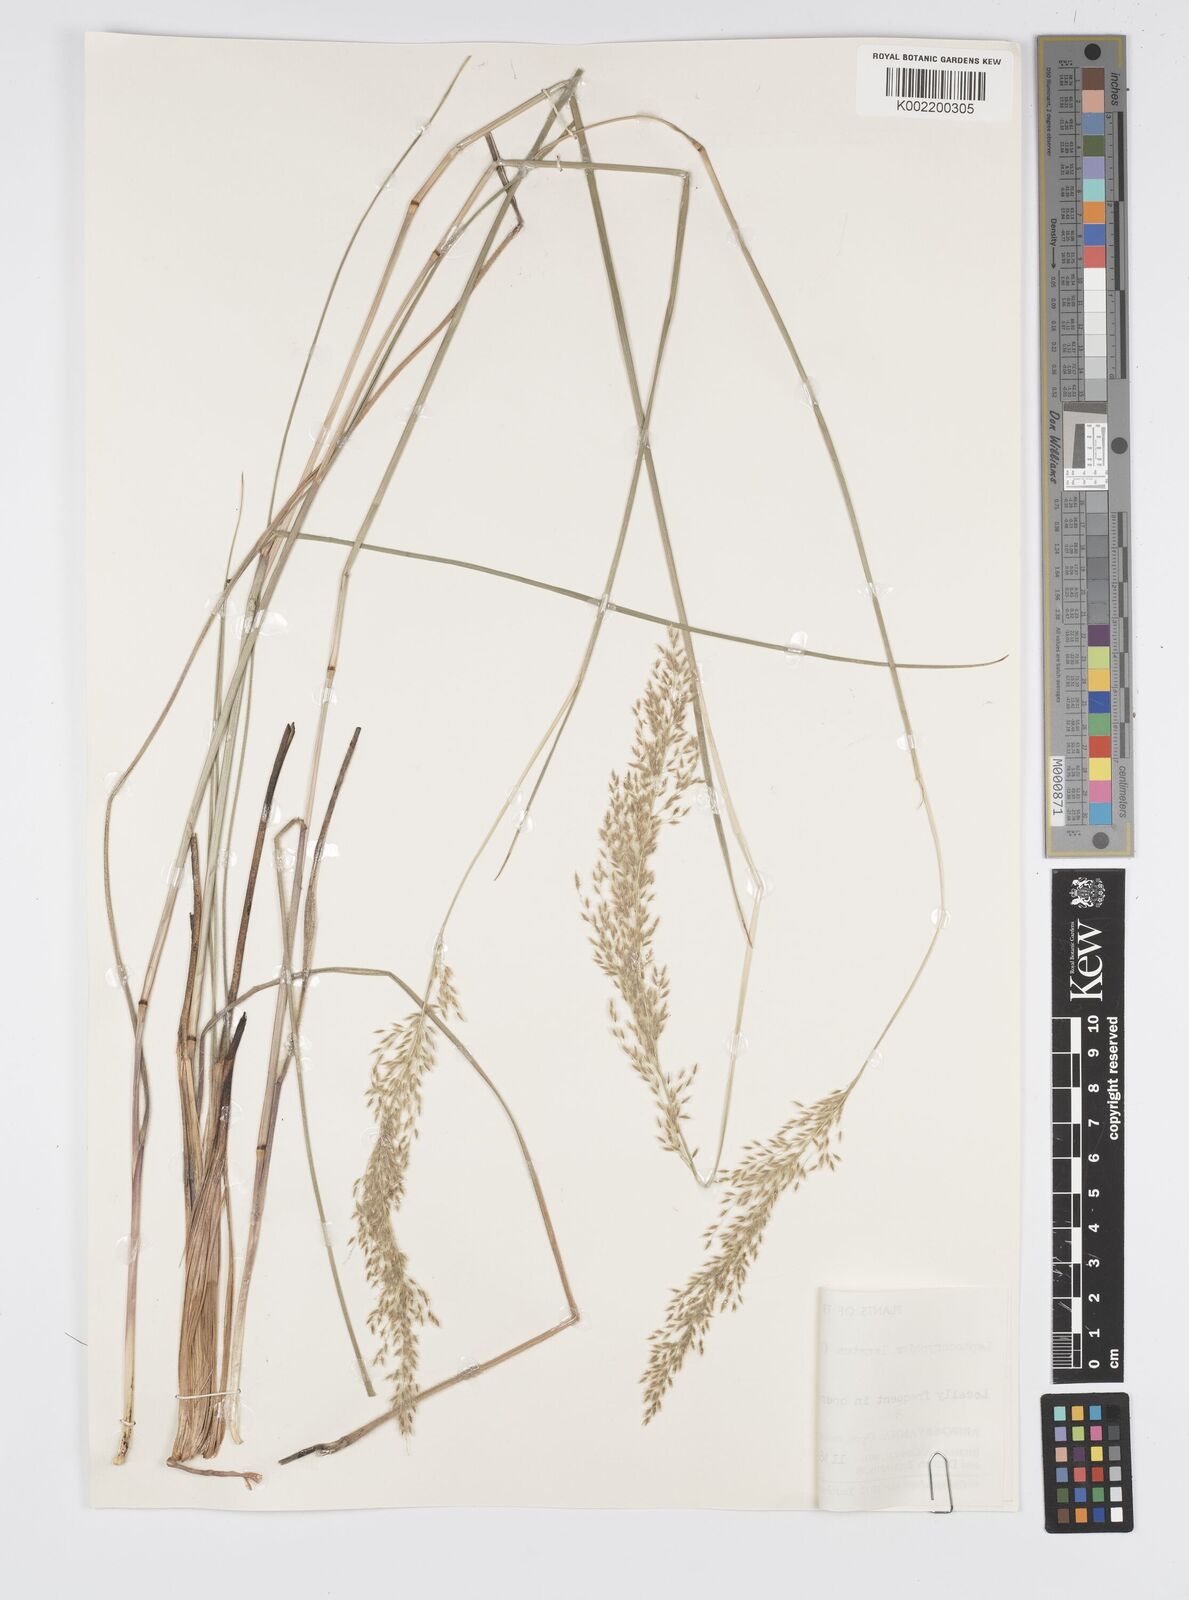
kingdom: Plantae
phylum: Tracheophyta
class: Liliopsida
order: Poales
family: Poaceae
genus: Anthenantia
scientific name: Anthenantia lanata
